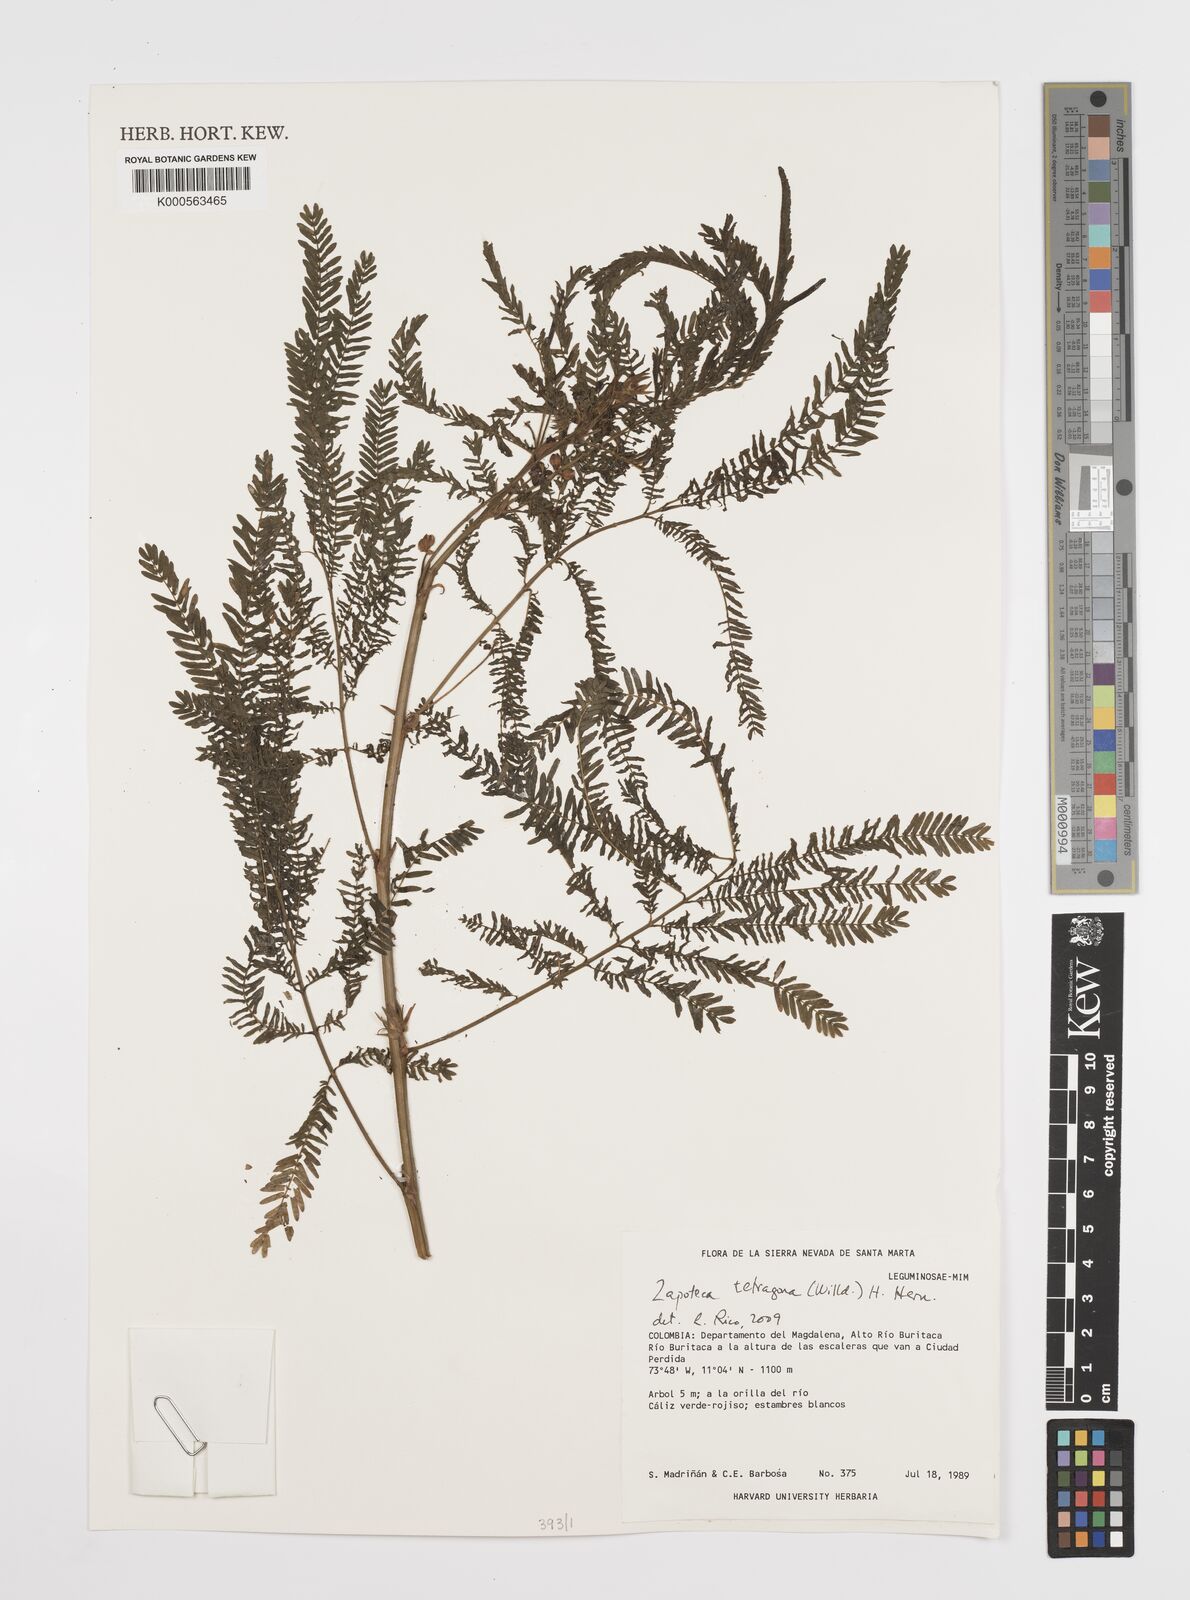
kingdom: Plantae
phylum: Tracheophyta
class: Magnoliopsida
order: Fabales
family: Fabaceae
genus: Zapoteca
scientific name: Zapoteca tetragona
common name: White calliandra
